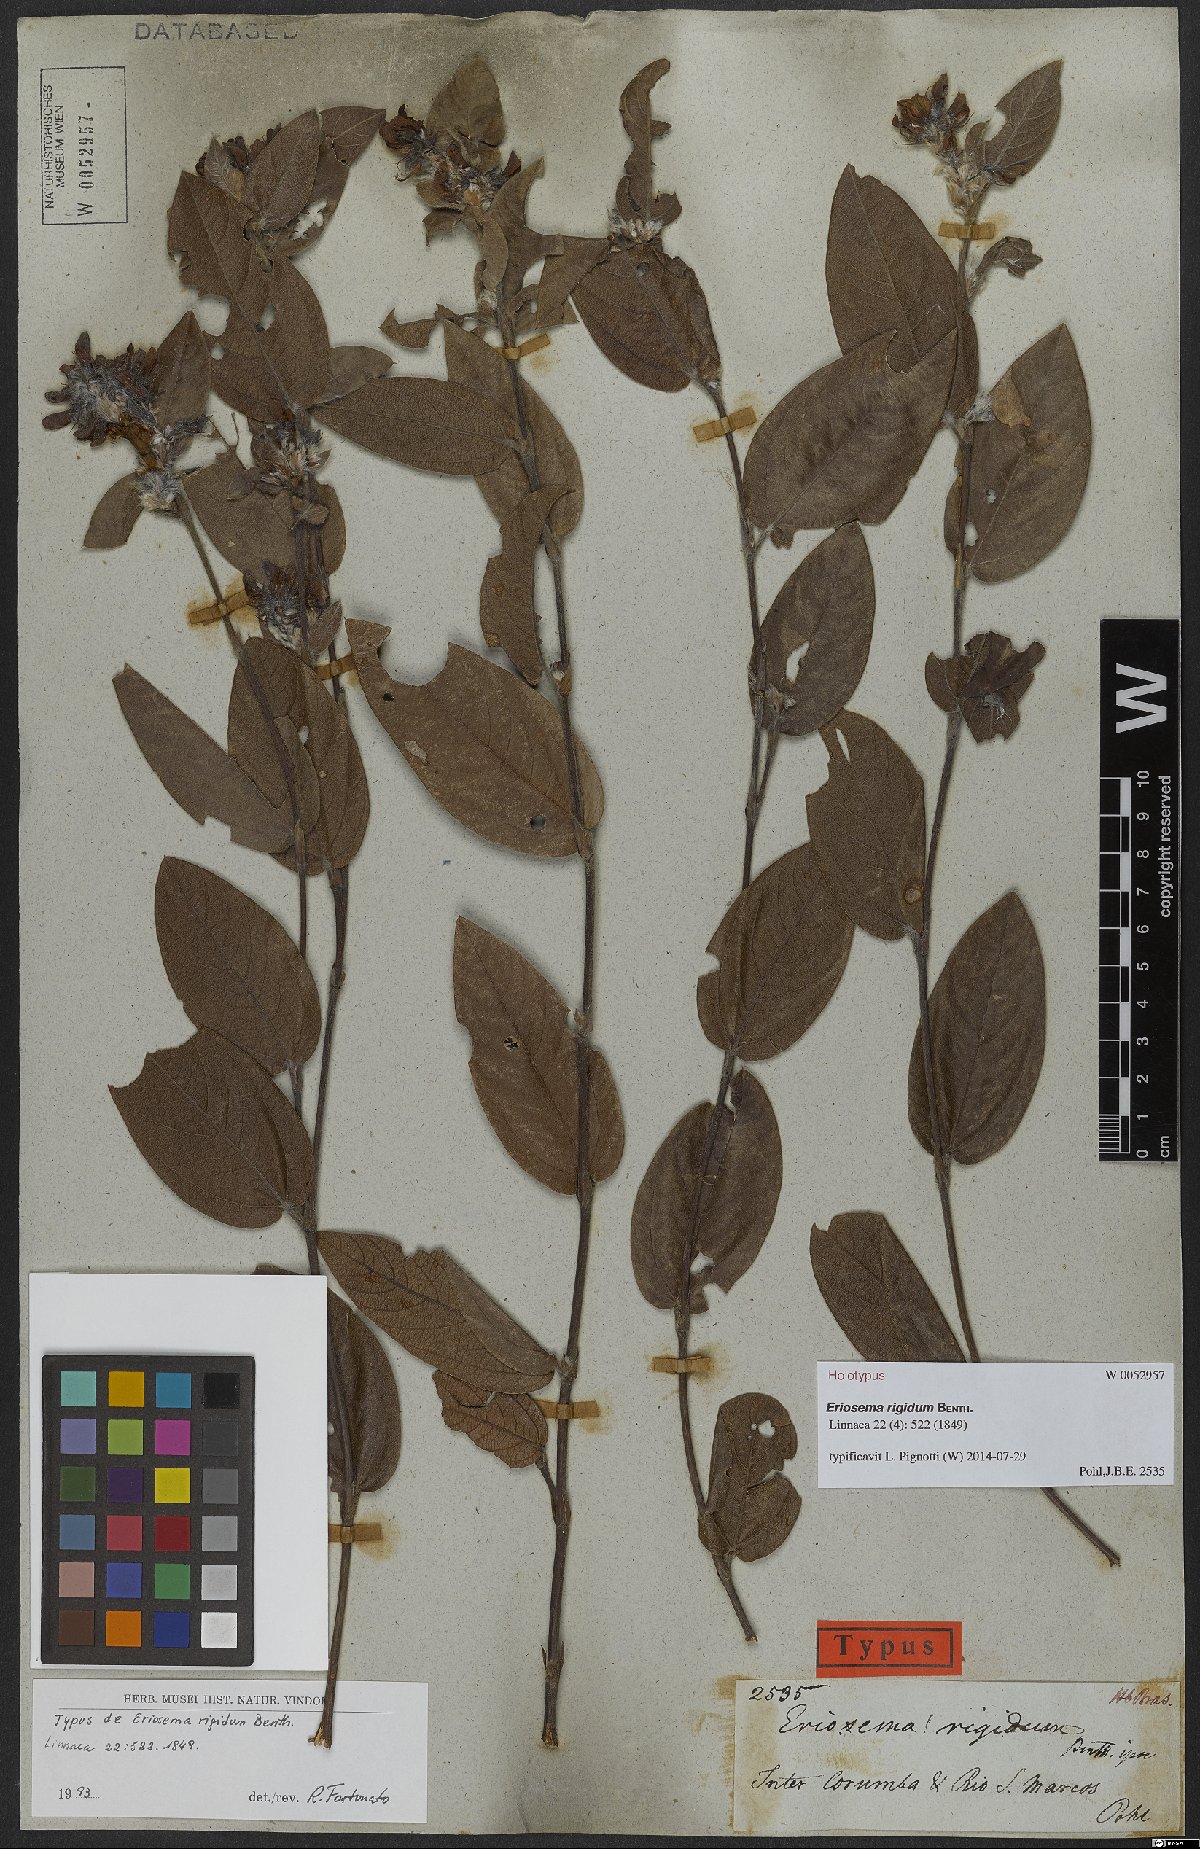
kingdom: Plantae
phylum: Tracheophyta
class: Magnoliopsida
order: Fabales
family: Fabaceae
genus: Eriosema
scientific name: Eriosema rigidum
